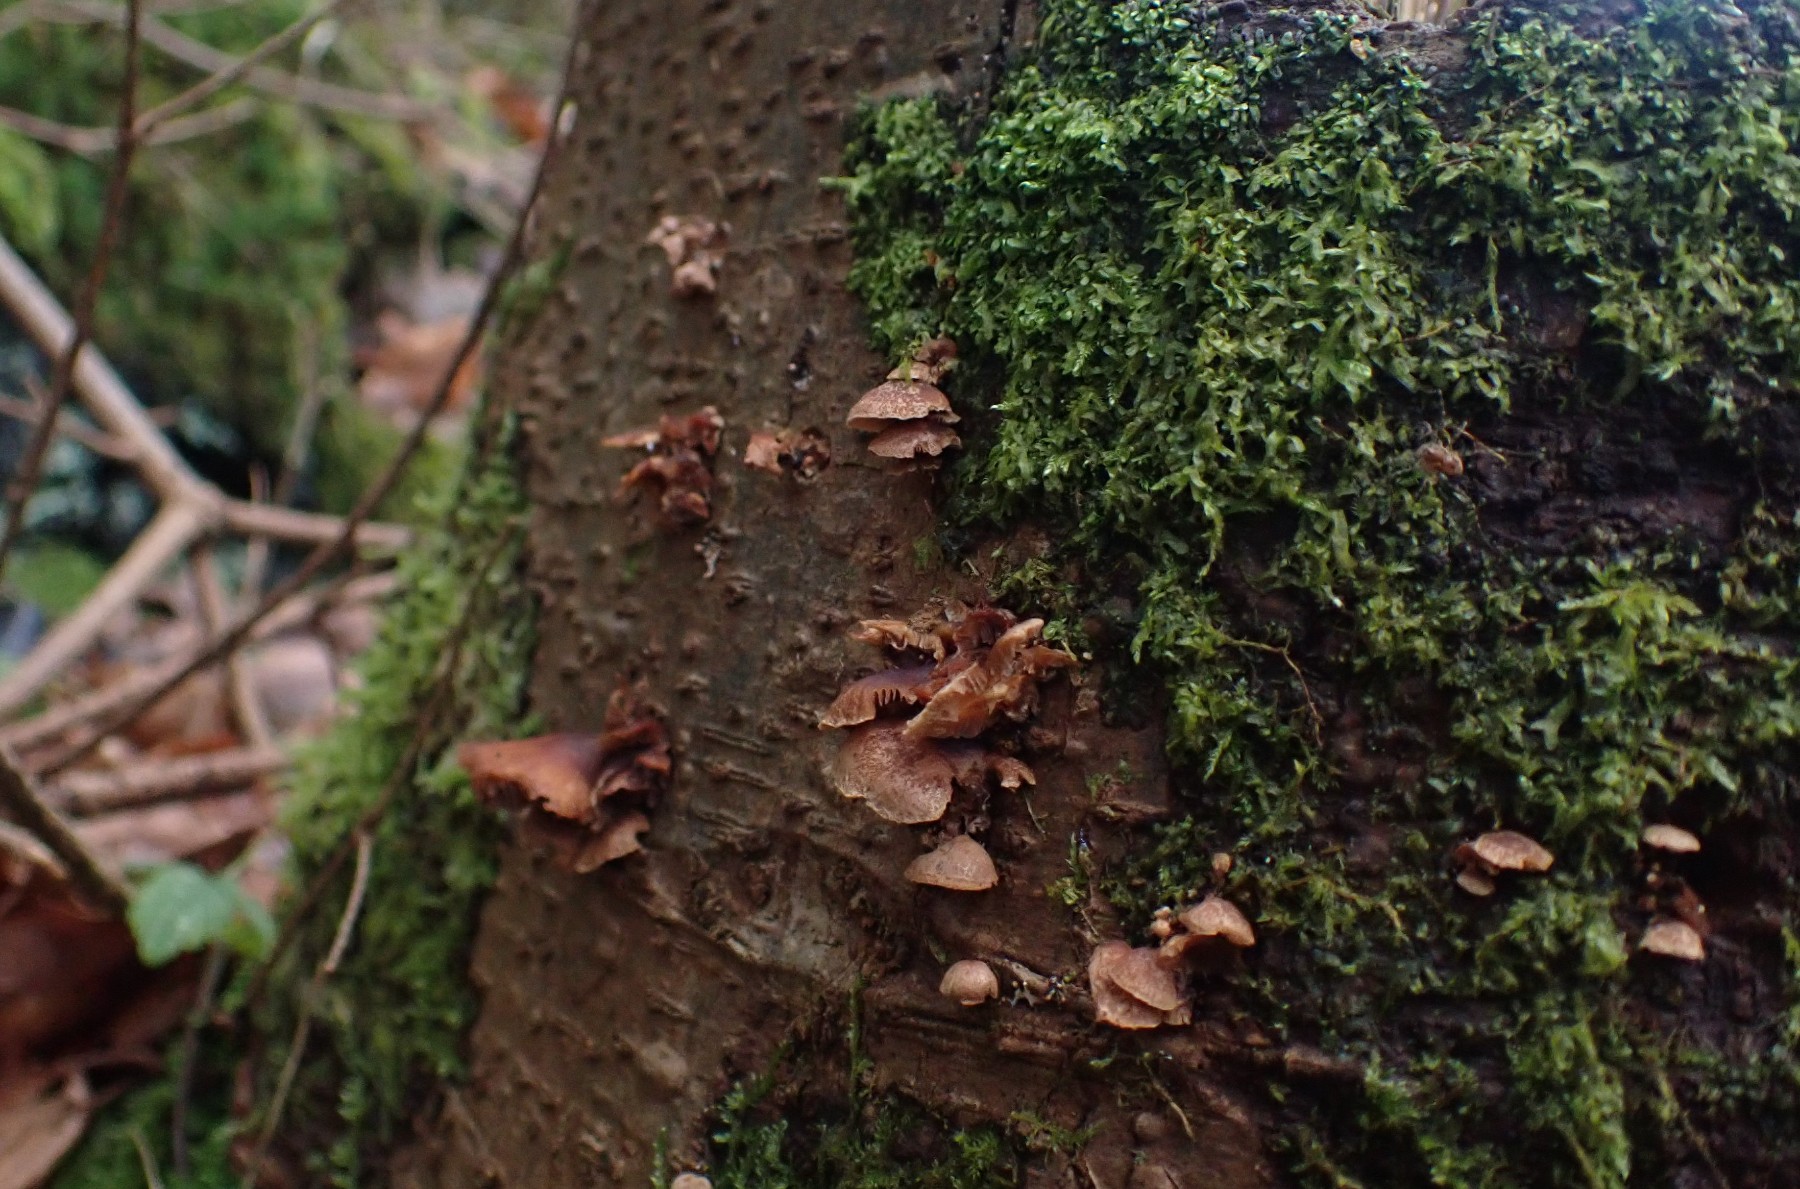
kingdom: Fungi
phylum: Basidiomycota
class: Agaricomycetes
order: Agaricales
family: Strophariaceae
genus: Deconica
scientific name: Deconica horizontalis
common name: ved-stråhat
